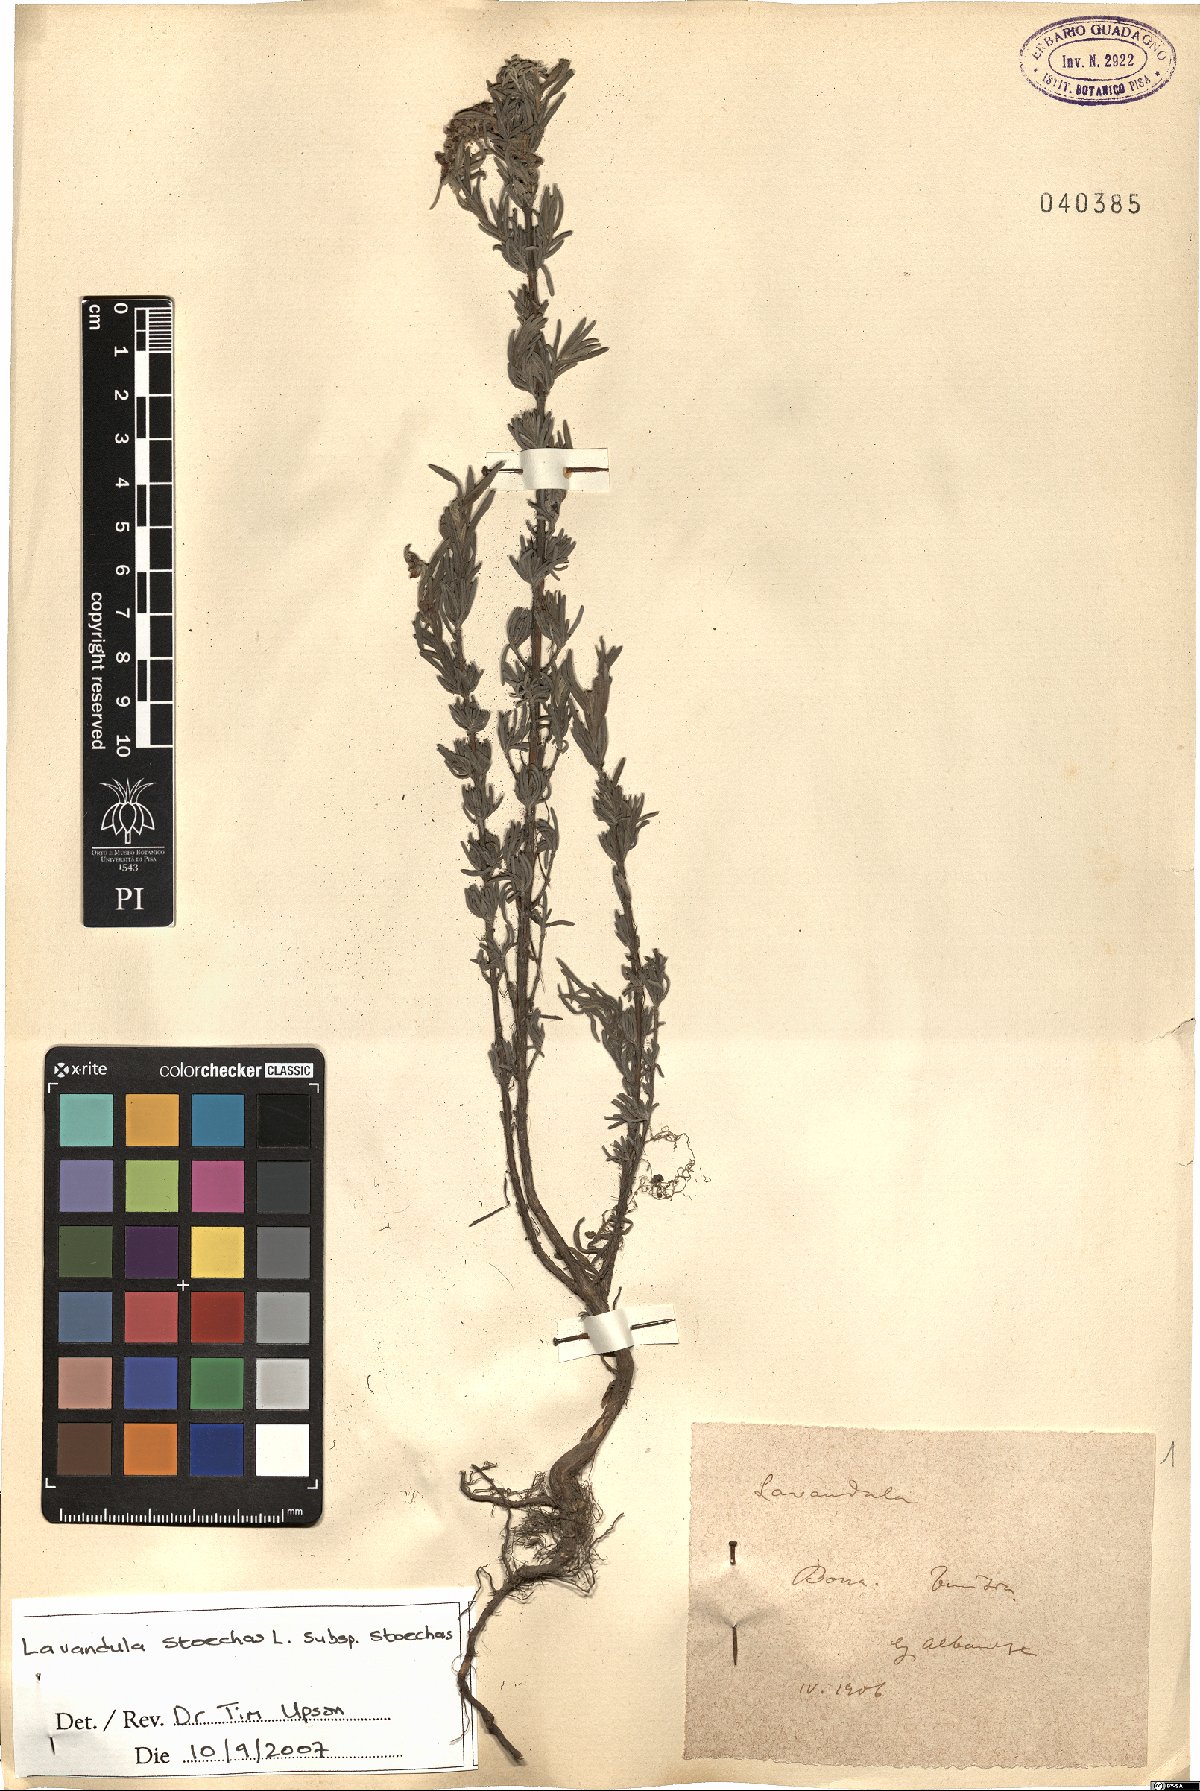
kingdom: Plantae
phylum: Tracheophyta
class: Magnoliopsida
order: Lamiales
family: Lamiaceae
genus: Lavandula
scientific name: Lavandula stoechas
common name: French lavender
